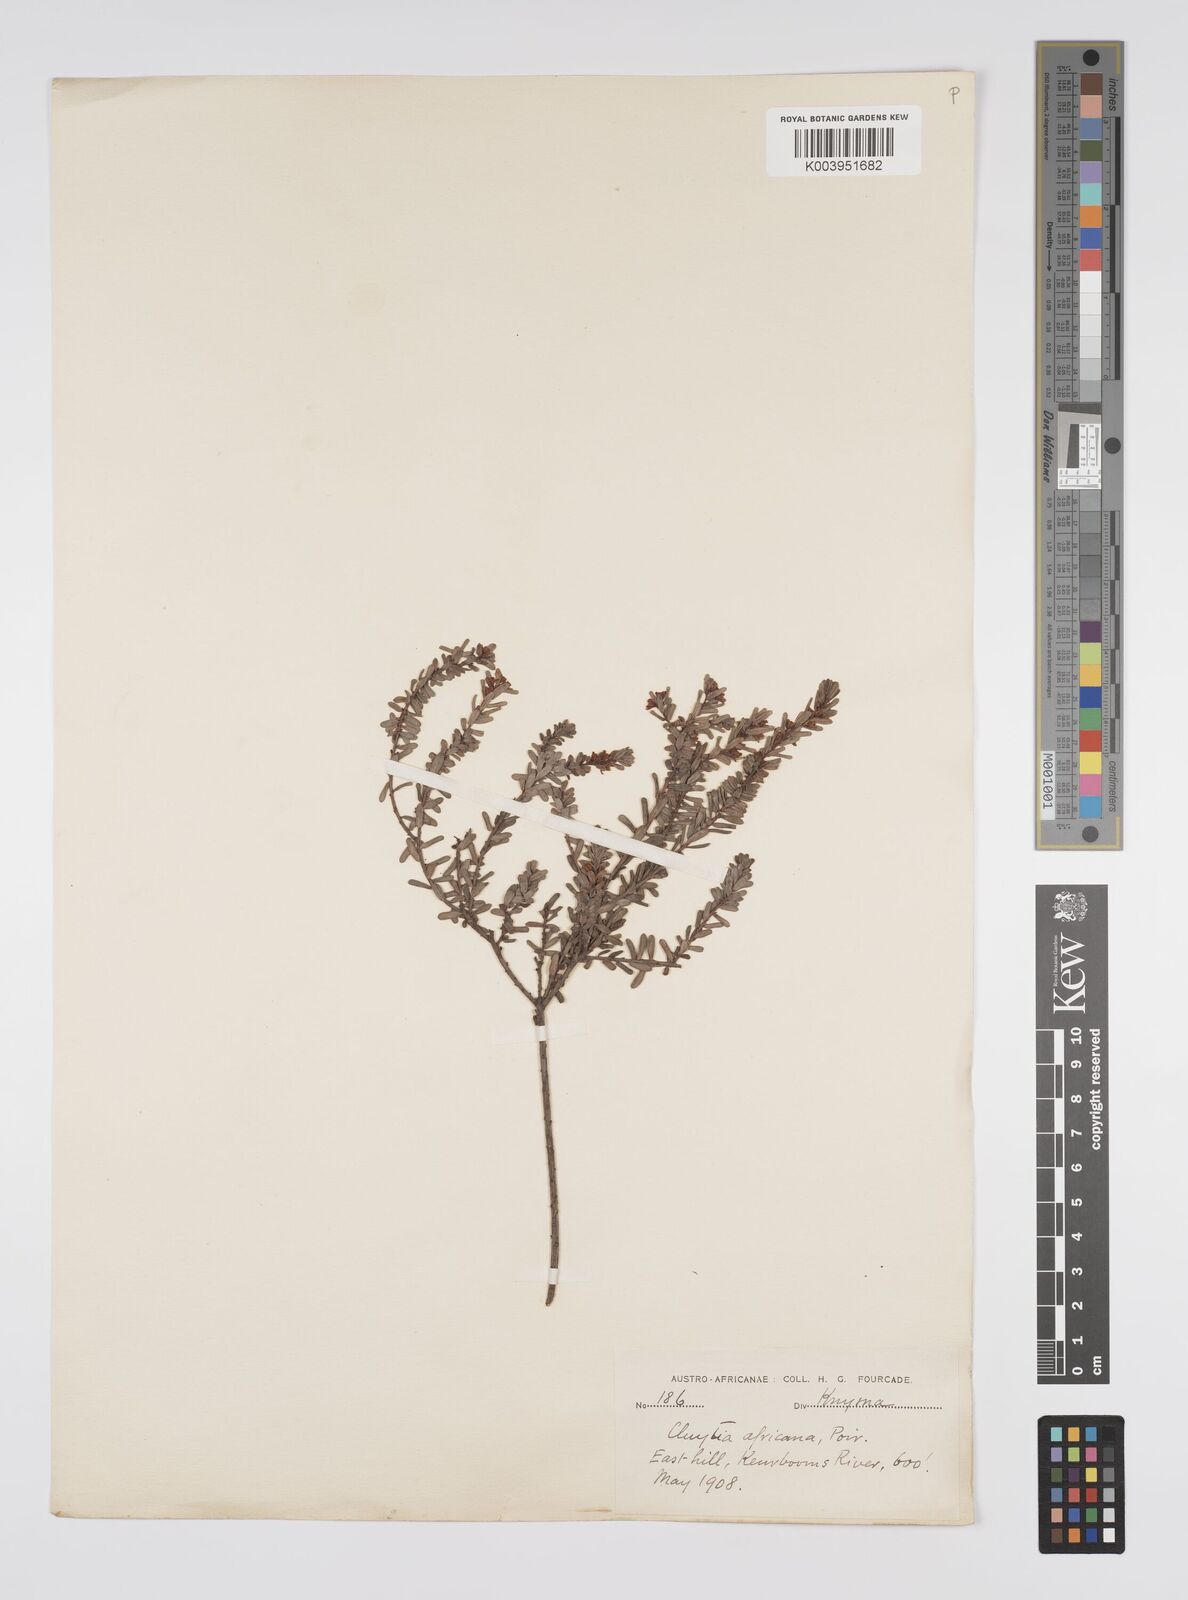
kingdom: Plantae
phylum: Tracheophyta
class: Magnoliopsida
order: Malpighiales
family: Peraceae
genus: Clutia
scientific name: Clutia africana
